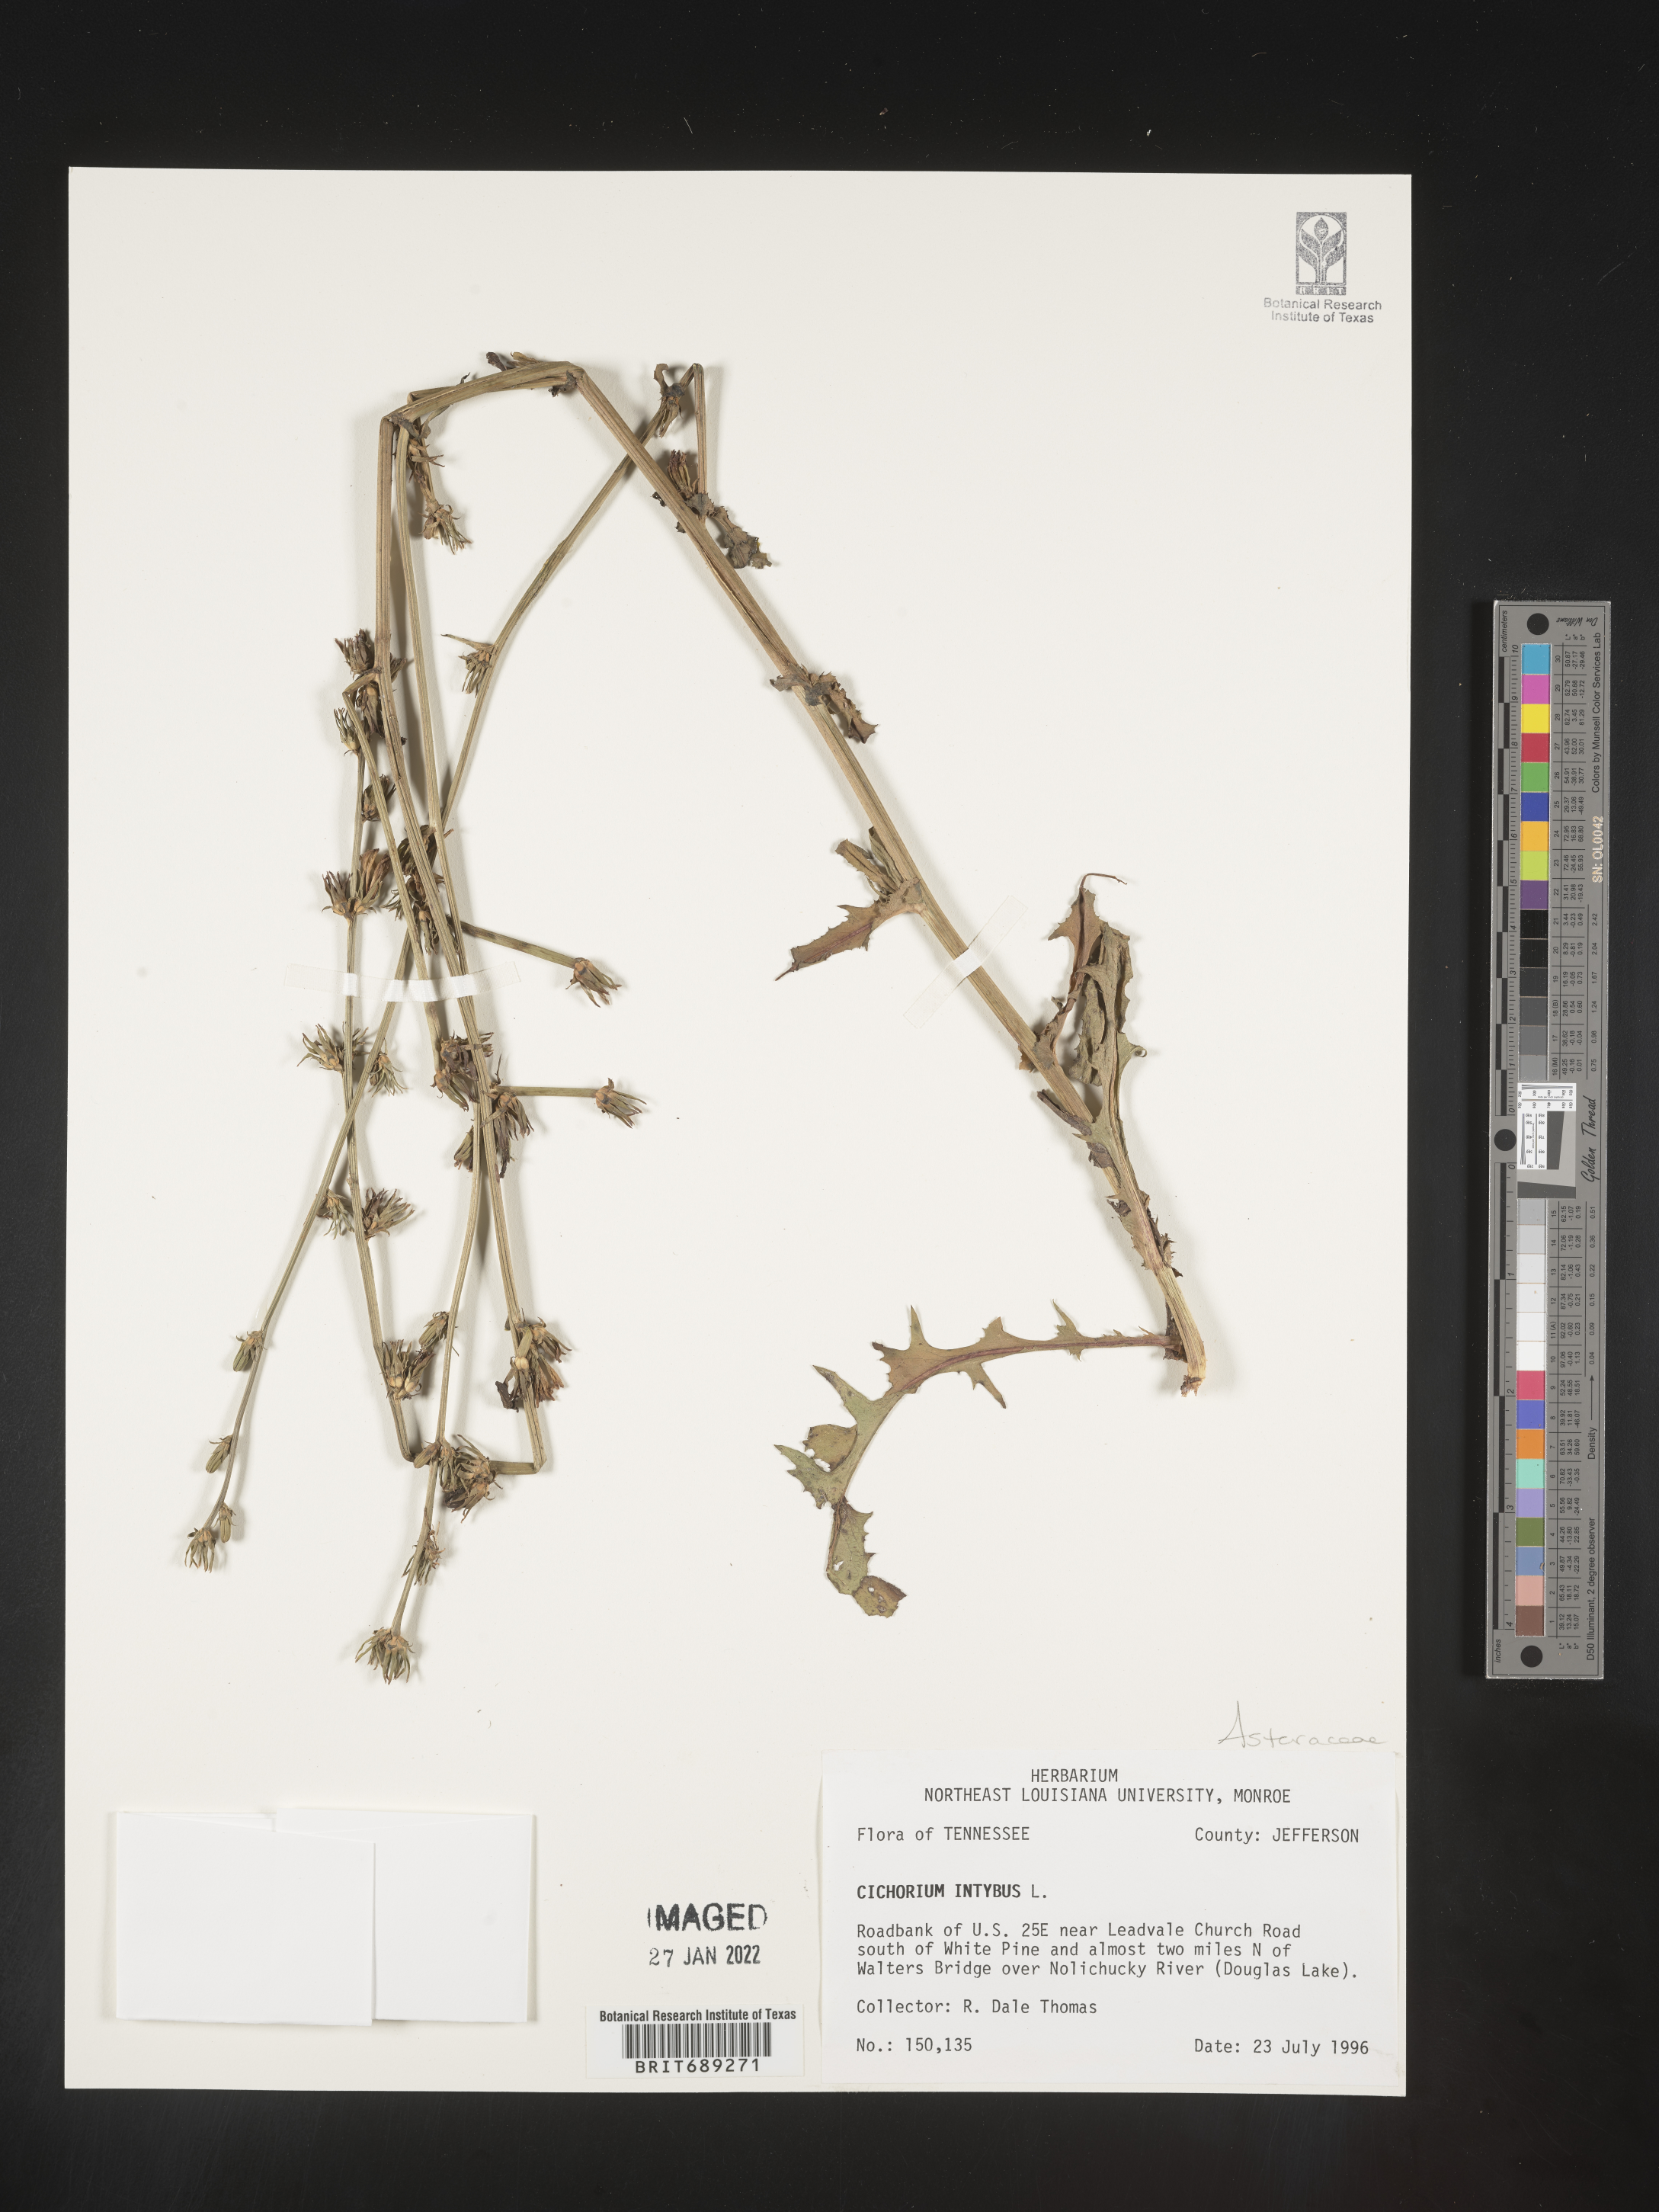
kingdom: Plantae
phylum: Tracheophyta
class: Magnoliopsida
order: Asterales
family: Asteraceae
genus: Cichorium
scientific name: Cichorium intybus
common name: Chicory
